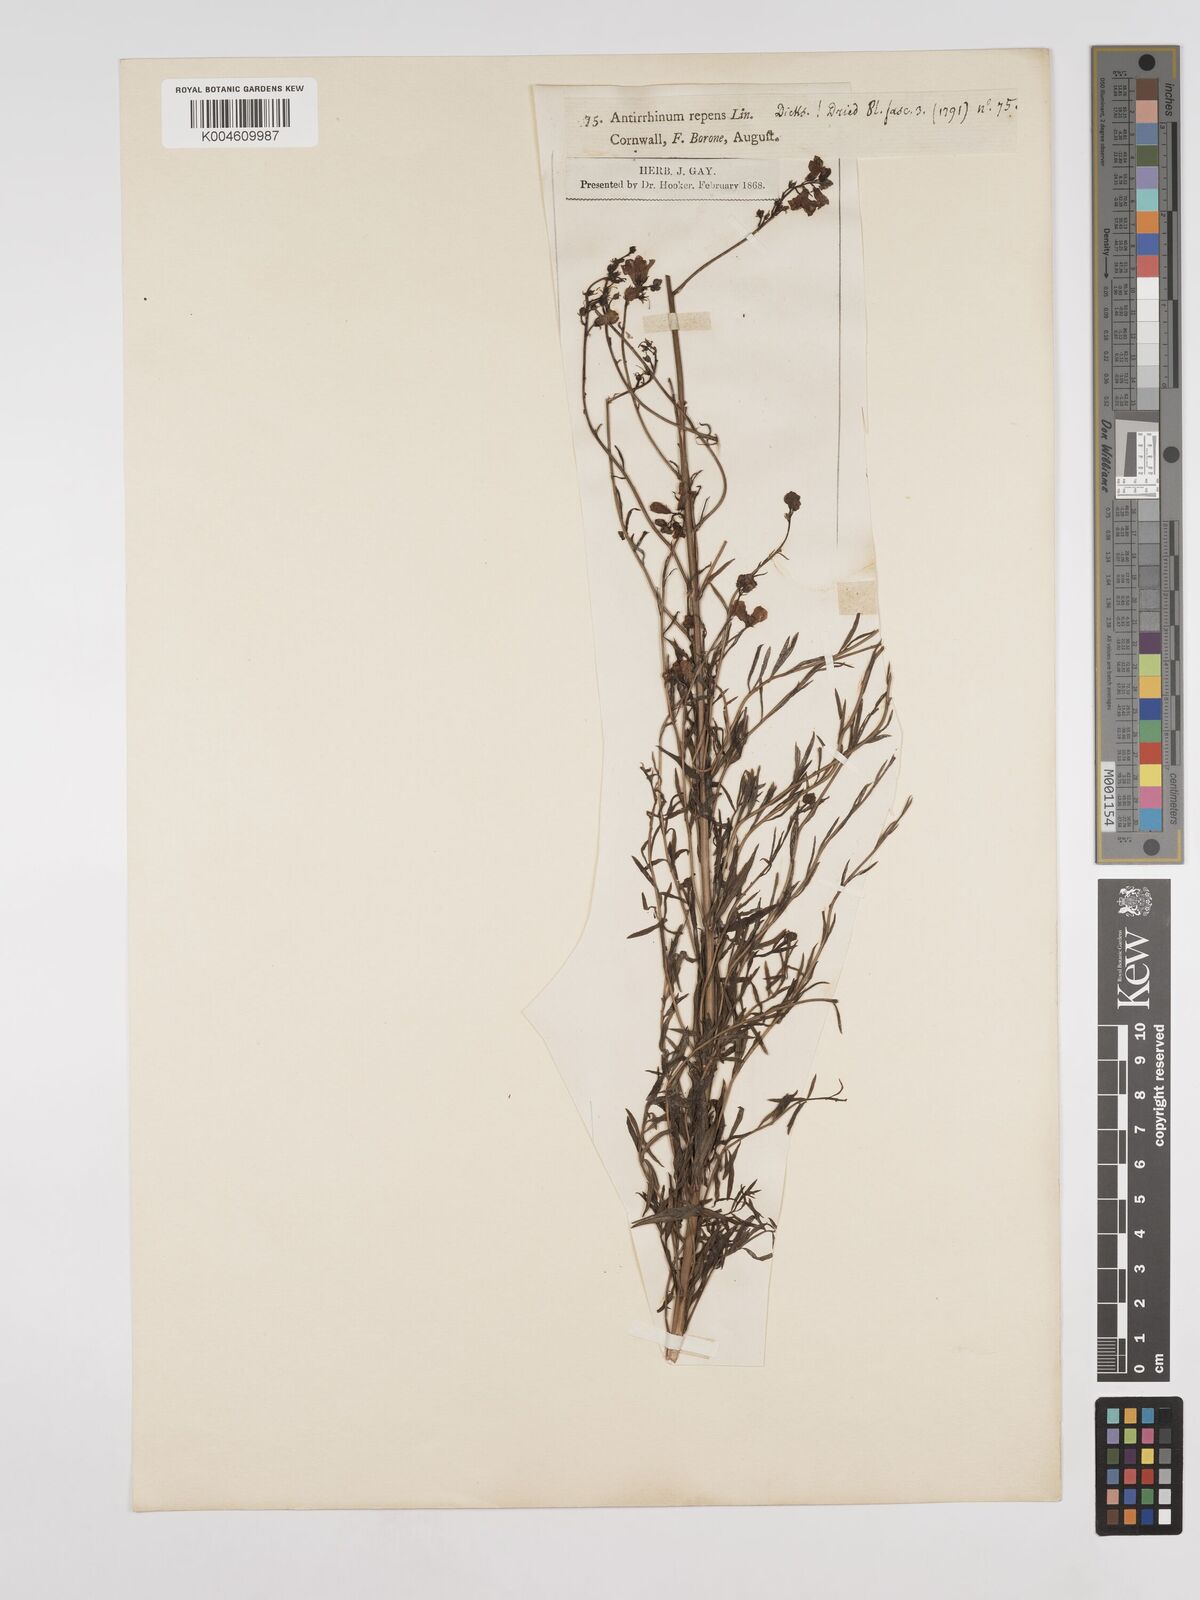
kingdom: Plantae
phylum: Tracheophyta
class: Magnoliopsida
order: Lamiales
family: Plantaginaceae
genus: Linaria
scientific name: Linaria repens
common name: Pale toadflax
